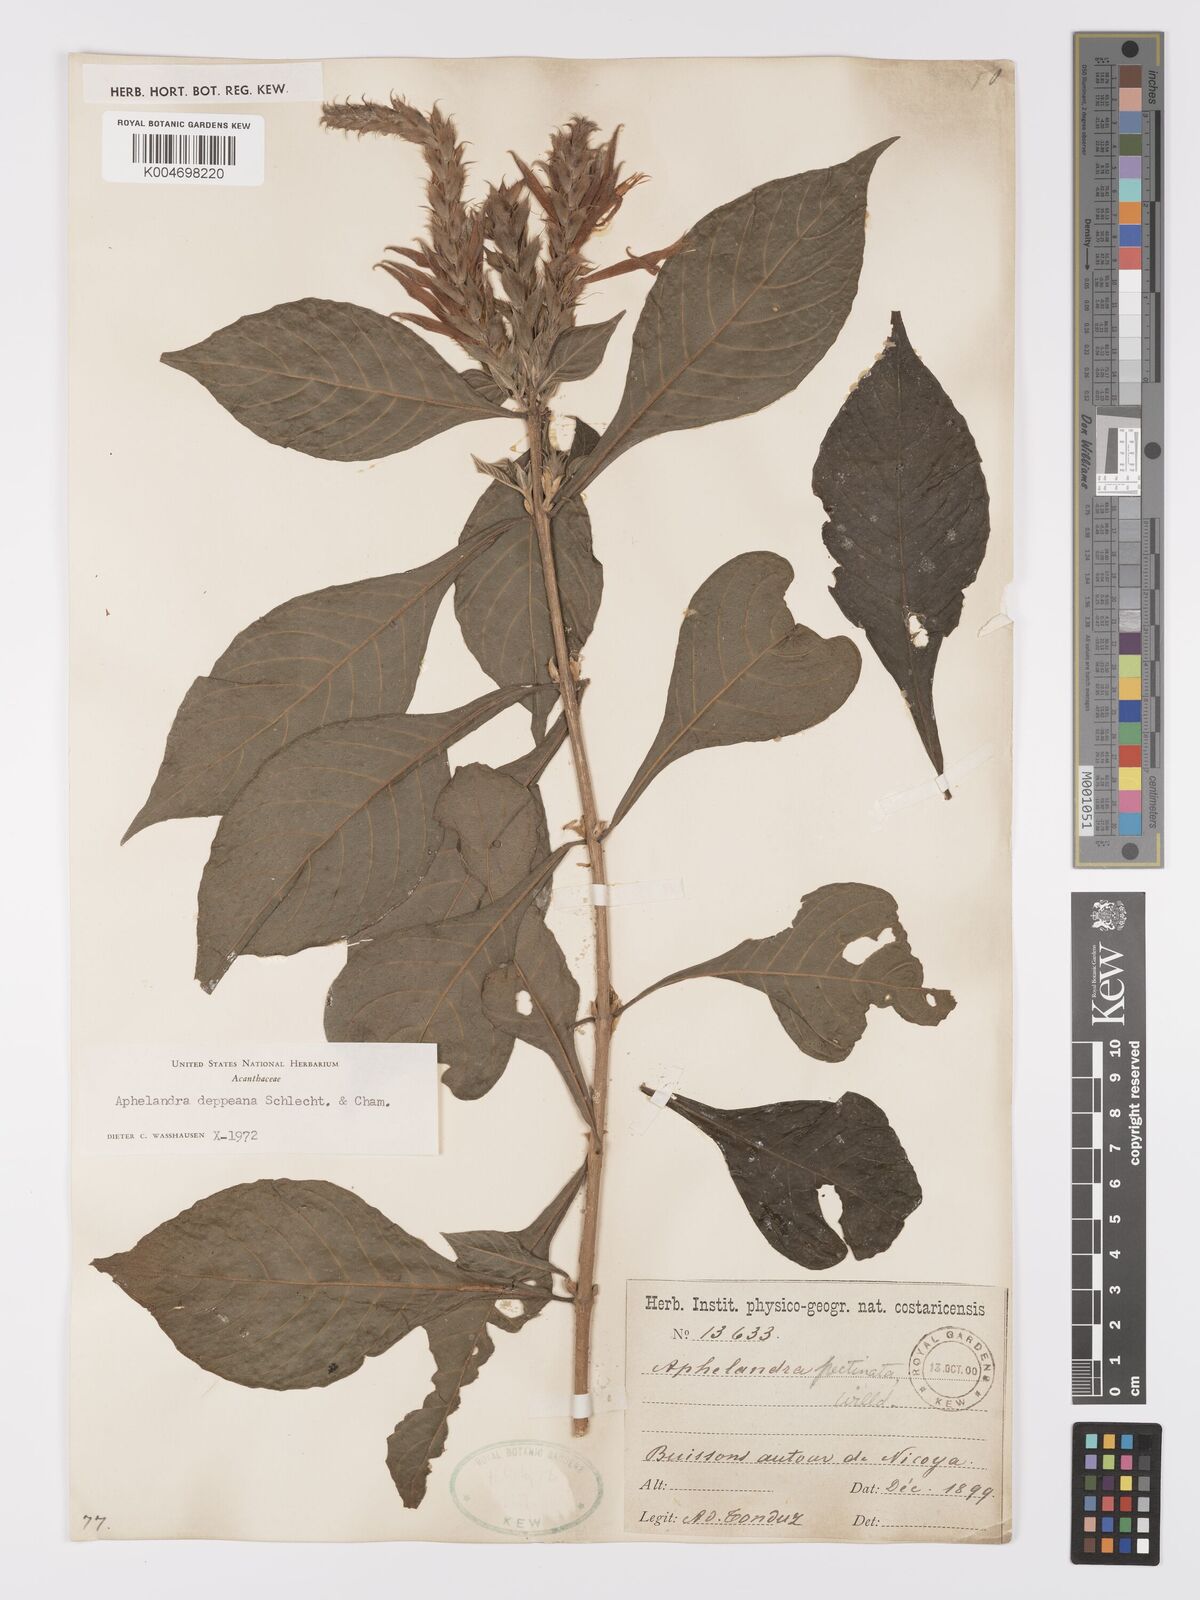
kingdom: Plantae
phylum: Tracheophyta
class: Magnoliopsida
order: Lamiales
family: Acanthaceae
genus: Aphelandra
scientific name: Aphelandra scabra
